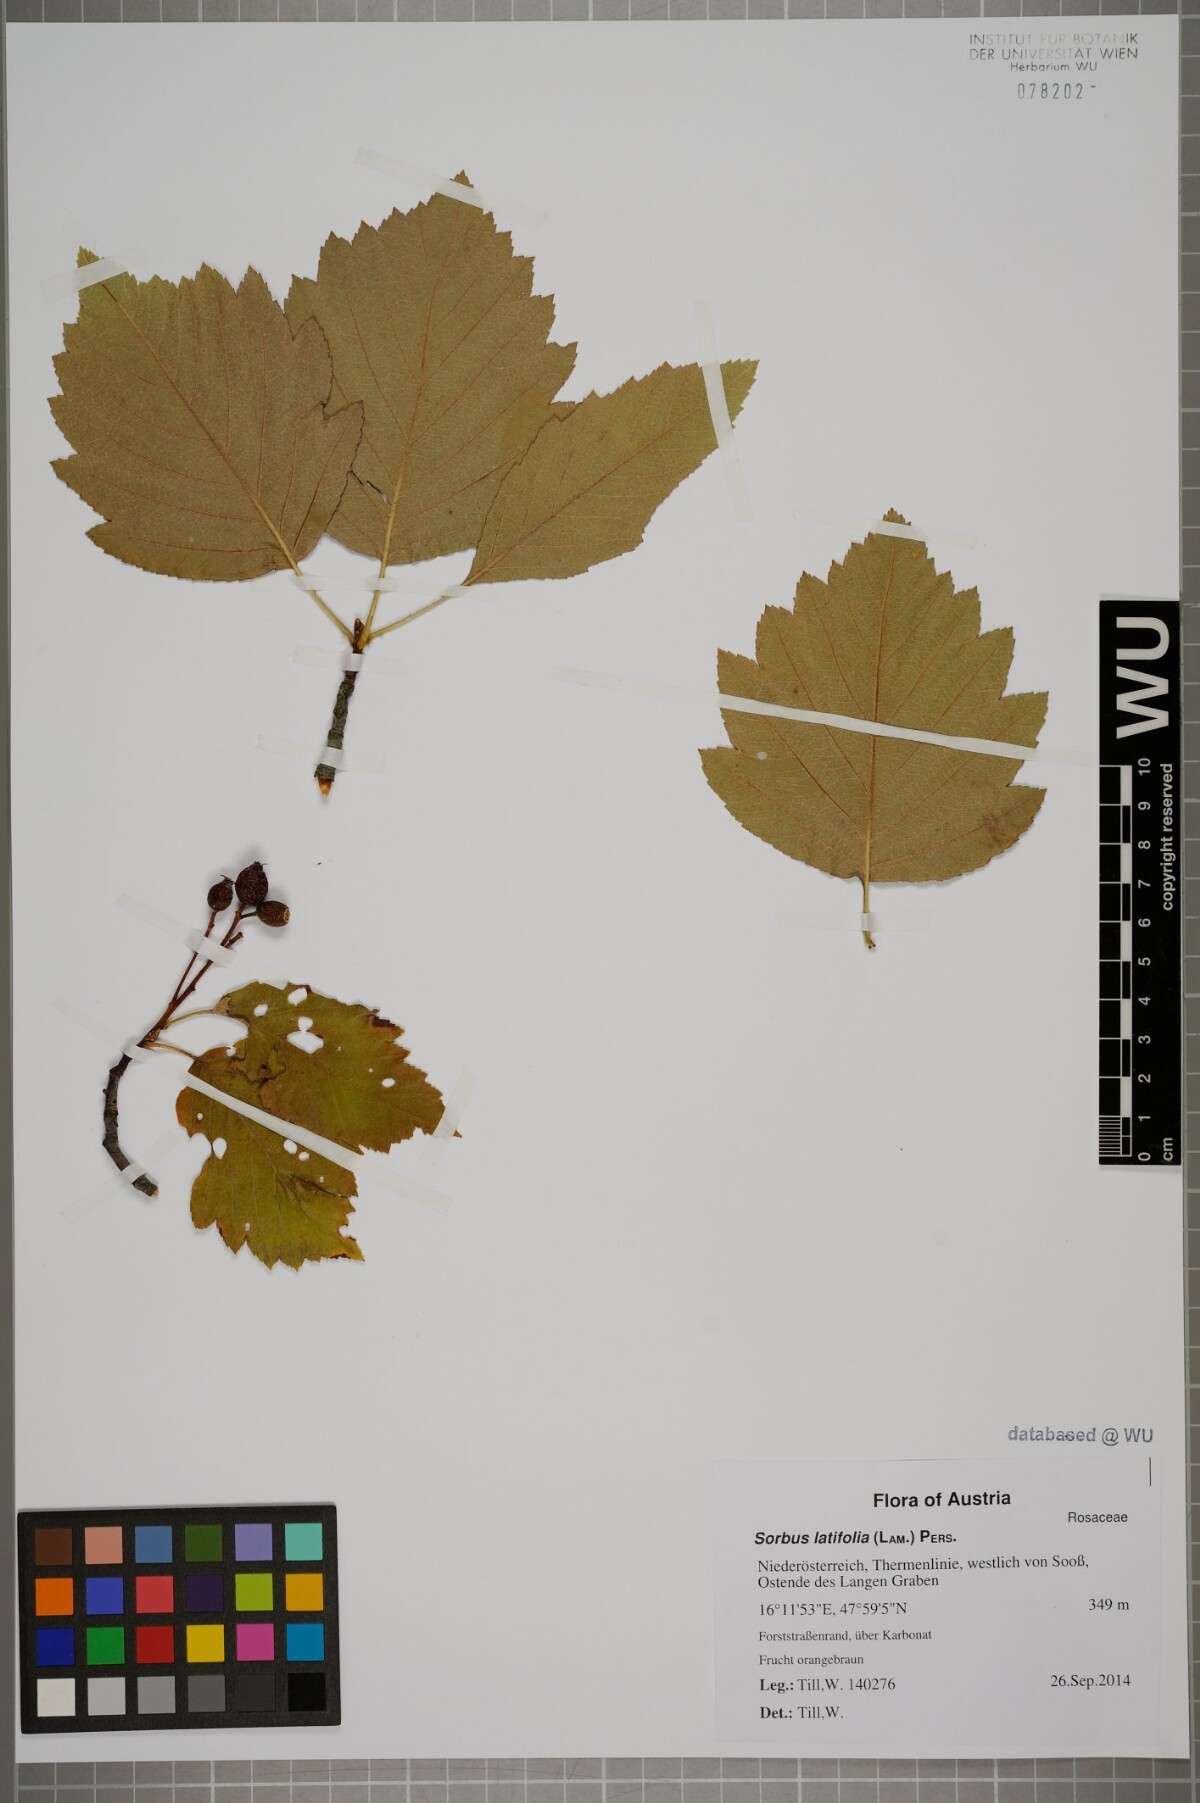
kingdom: Plantae
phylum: Tracheophyta
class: Magnoliopsida
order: Rosales
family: Rosaceae
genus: Karpatiosorbus
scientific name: Karpatiosorbus latifolia
